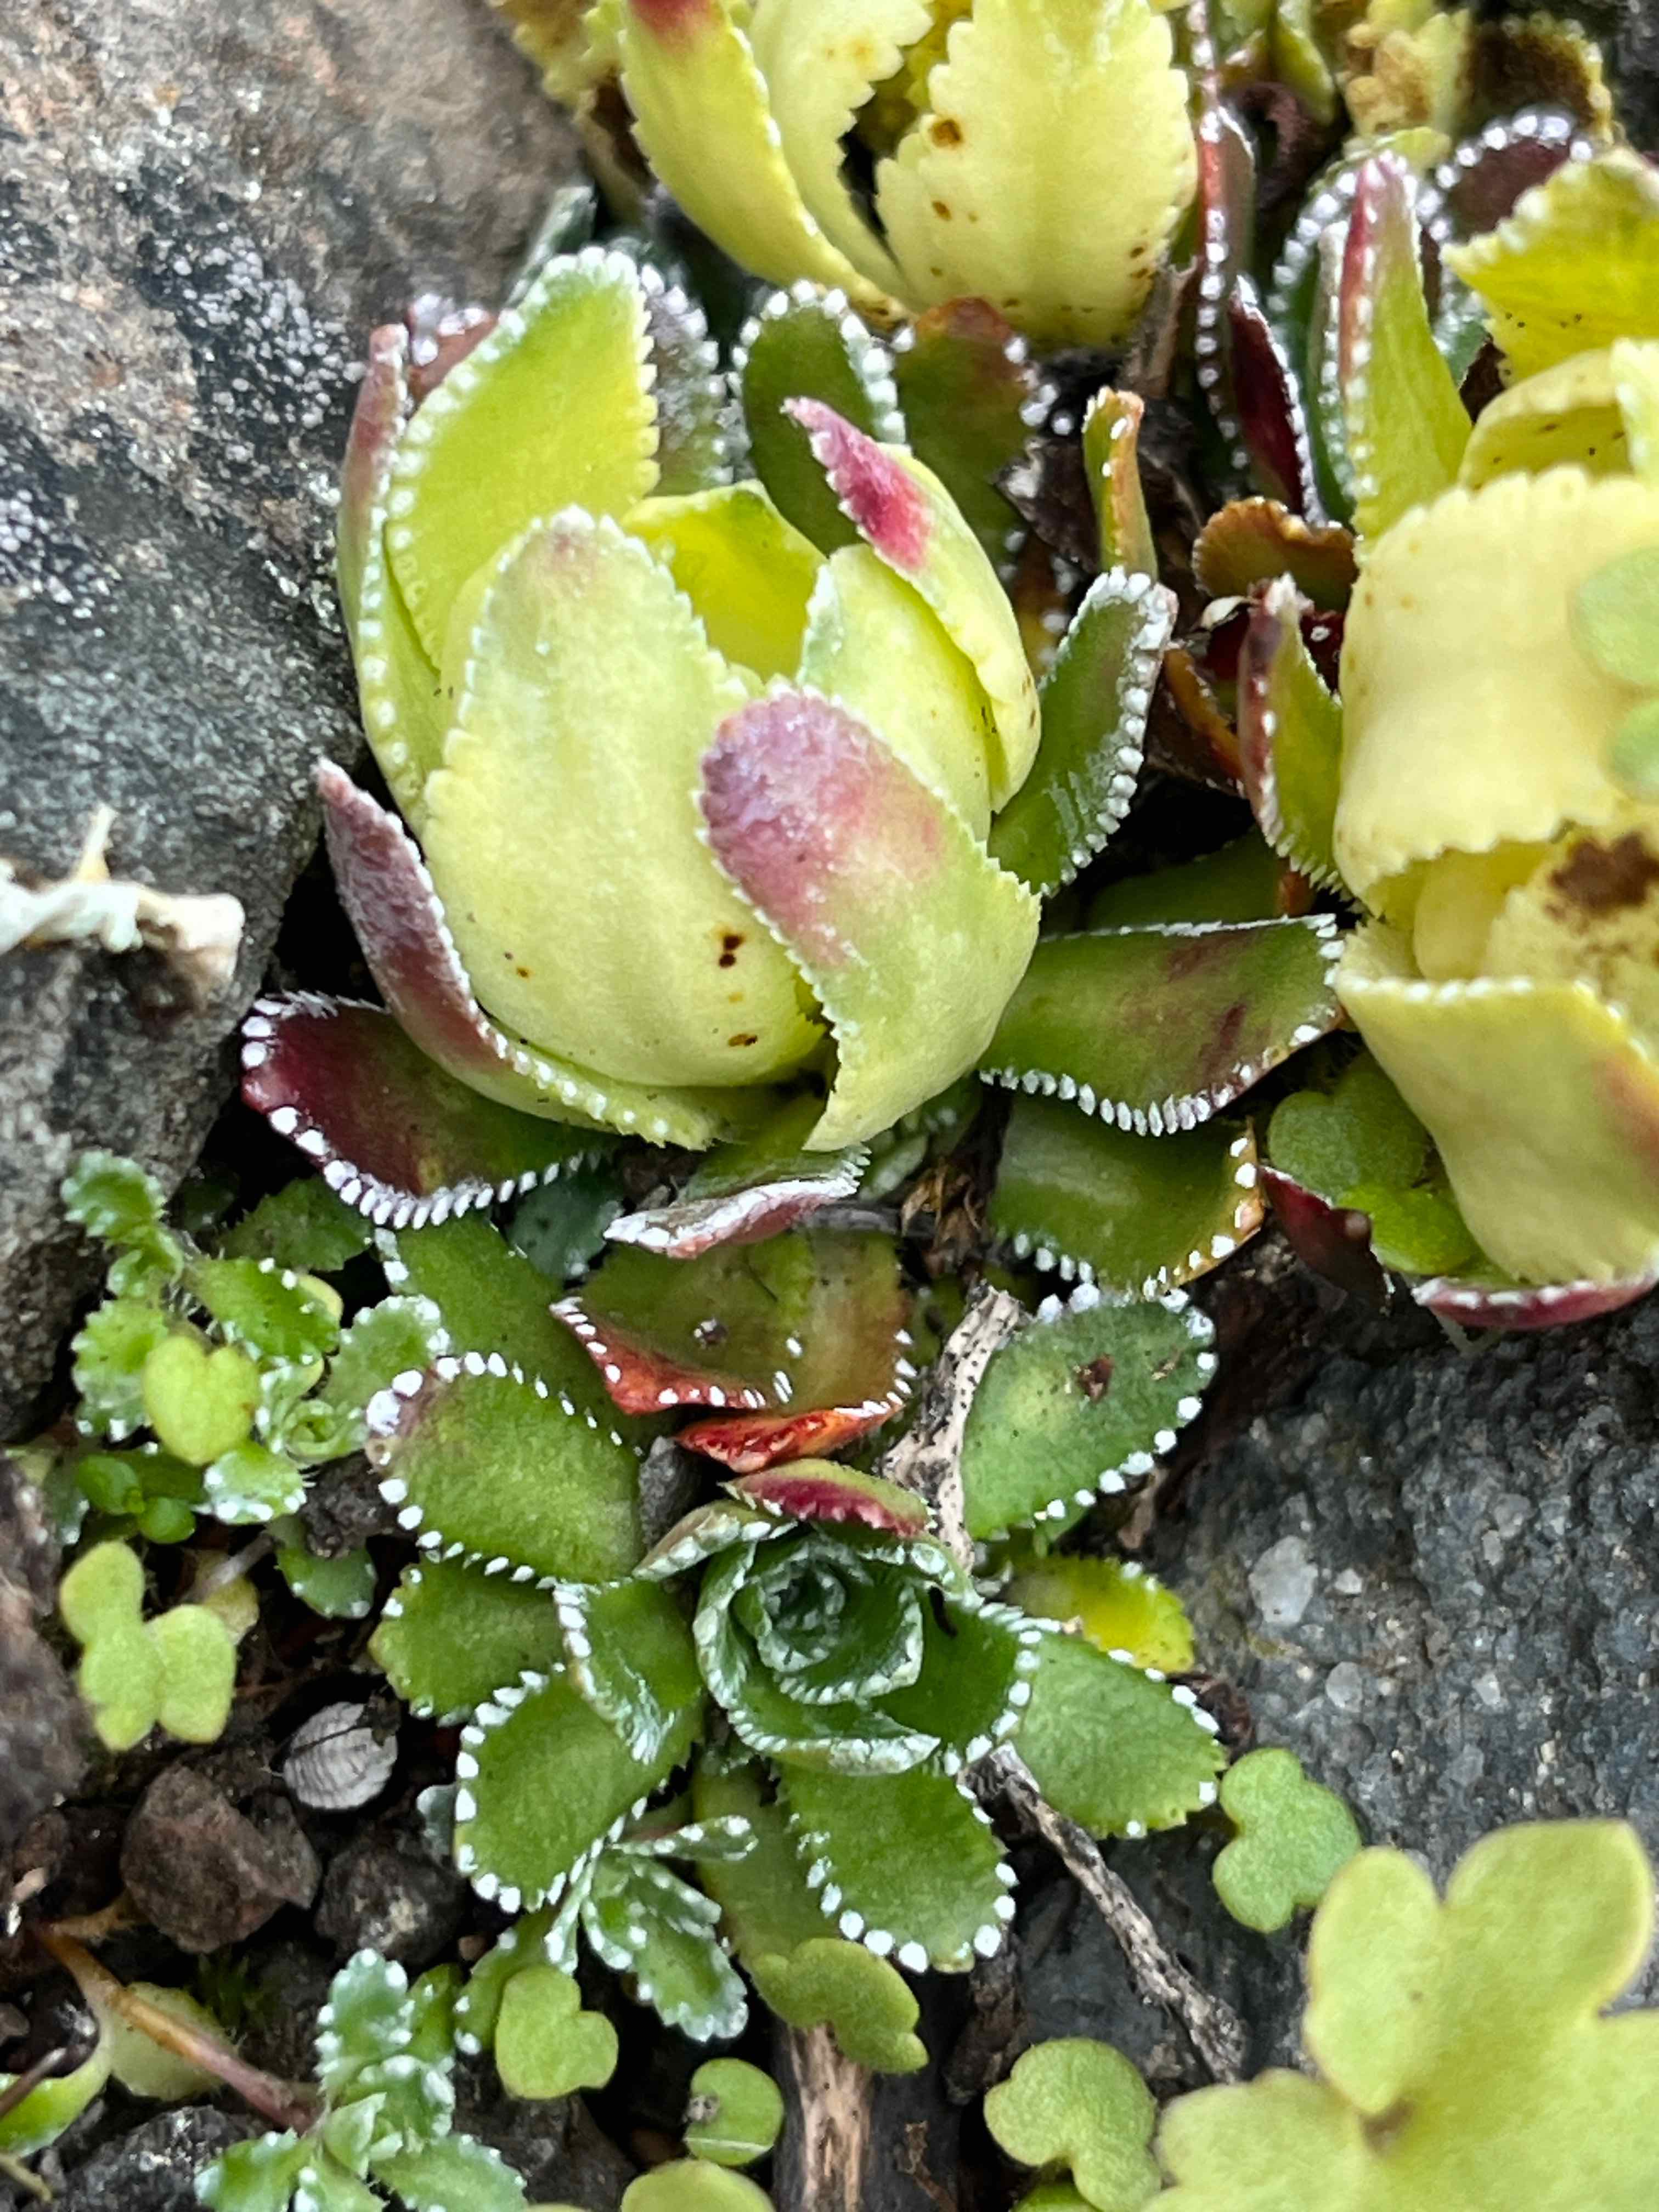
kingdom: Fungi
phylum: Basidiomycota
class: Exobasidiomycetes
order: Exobasidiales
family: Exobasidiaceae
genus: Exobasidium
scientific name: Exobasidium warmingii
